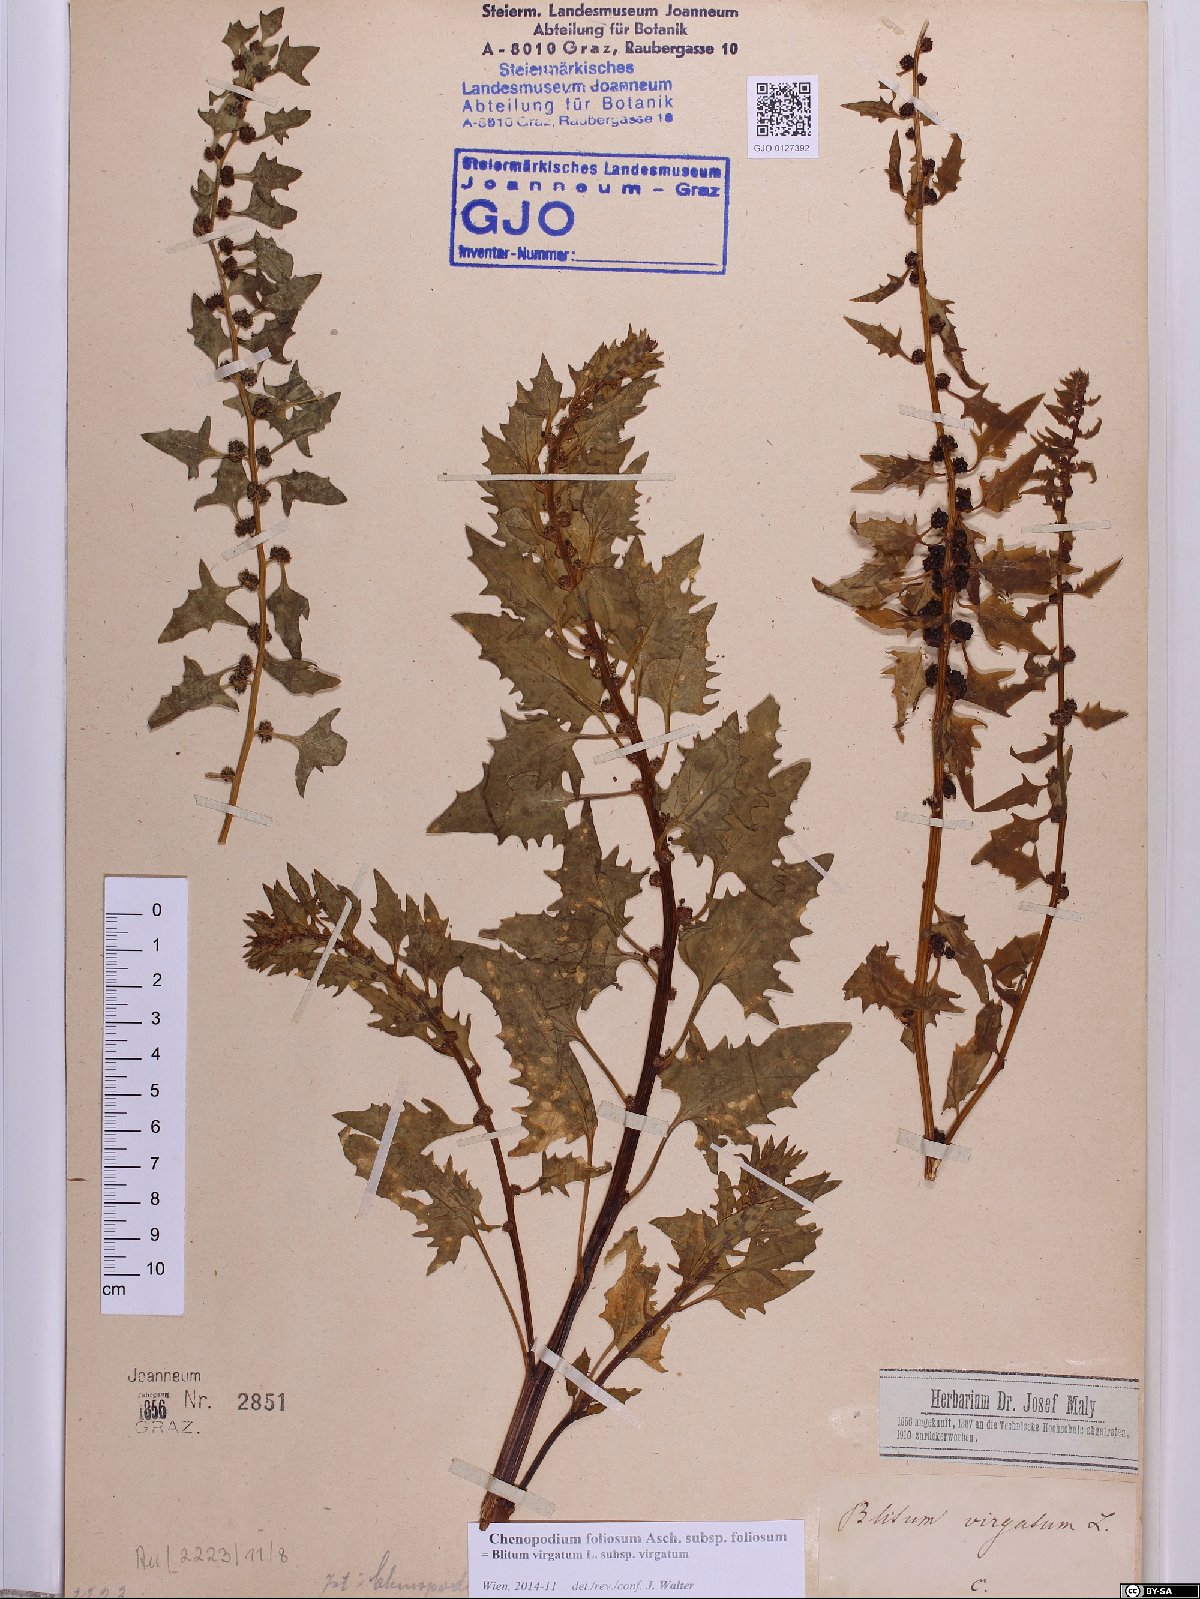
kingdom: Plantae
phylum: Tracheophyta
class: Magnoliopsida
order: Caryophyllales
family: Amaranthaceae
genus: Blitum
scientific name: Blitum virgatum
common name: Strawberry goosefoot
